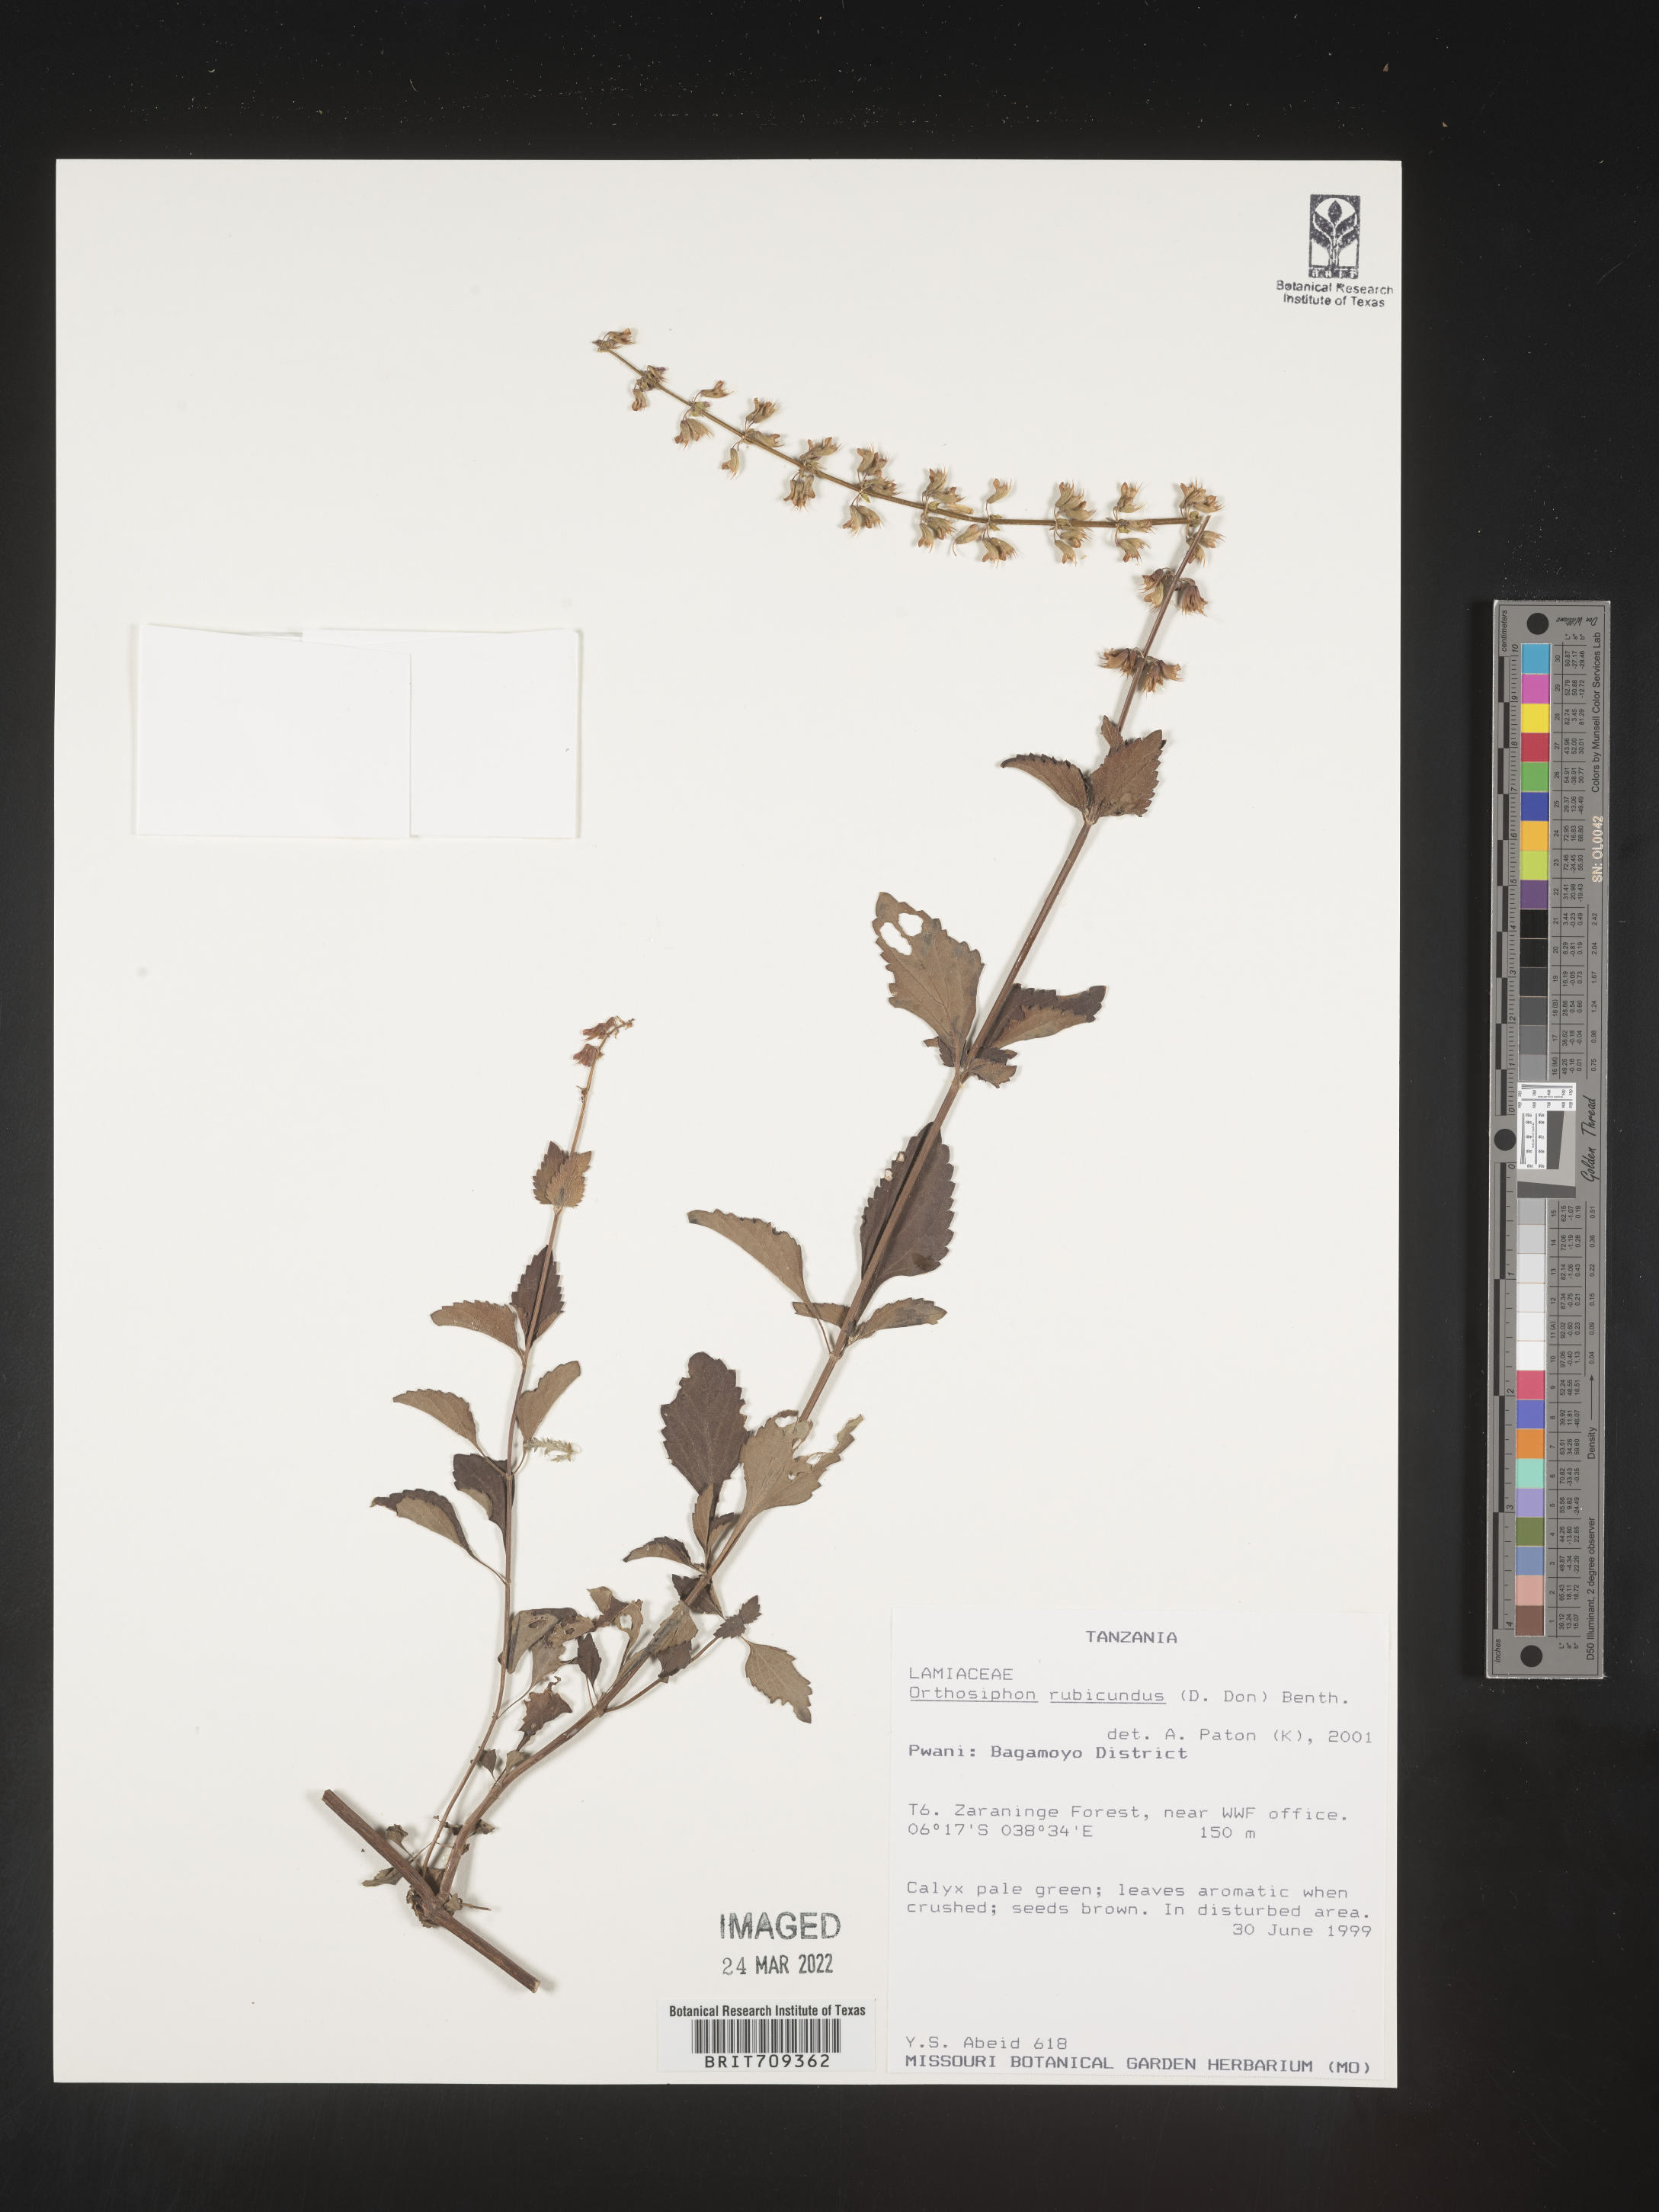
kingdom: Plantae
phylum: Tracheophyta
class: Magnoliopsida
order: Lamiales
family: Lamiaceae
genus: Orthosiphon
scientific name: Orthosiphon
